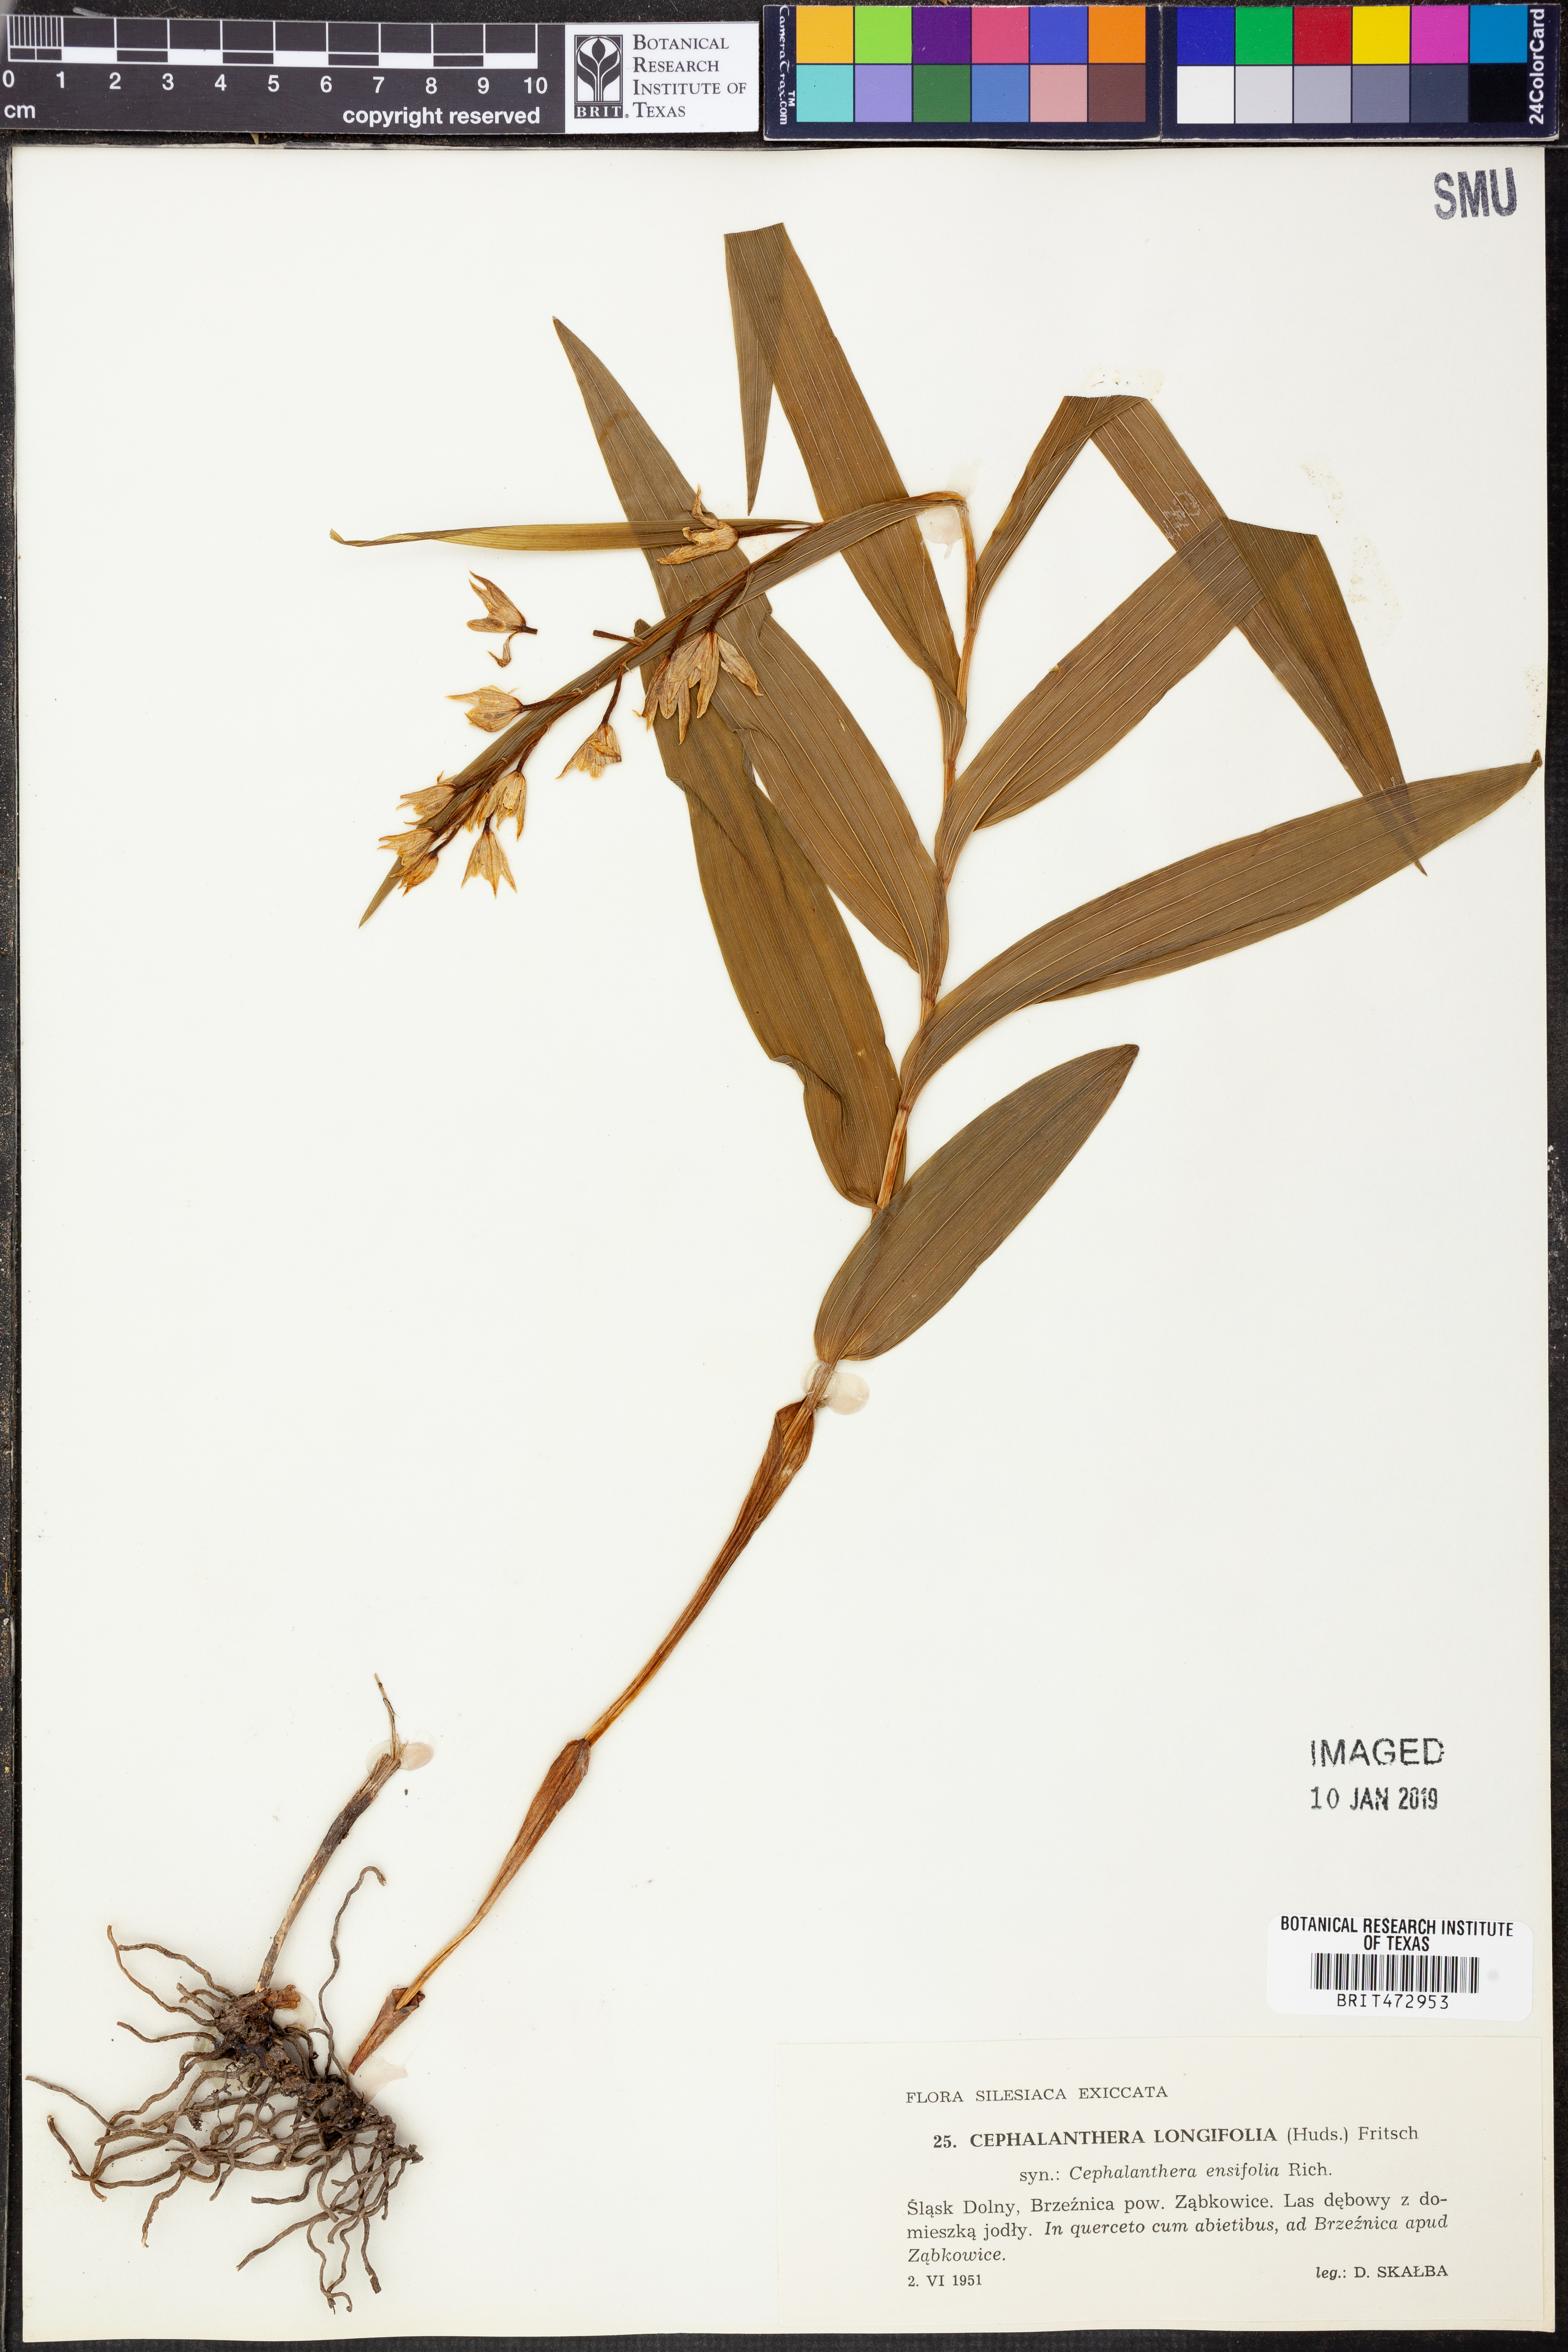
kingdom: Plantae
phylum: Tracheophyta
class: Liliopsida
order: Asparagales
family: Orchidaceae
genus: Cephalanthera
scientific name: Cephalanthera longifolia
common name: Narrow-leaved helleborine
